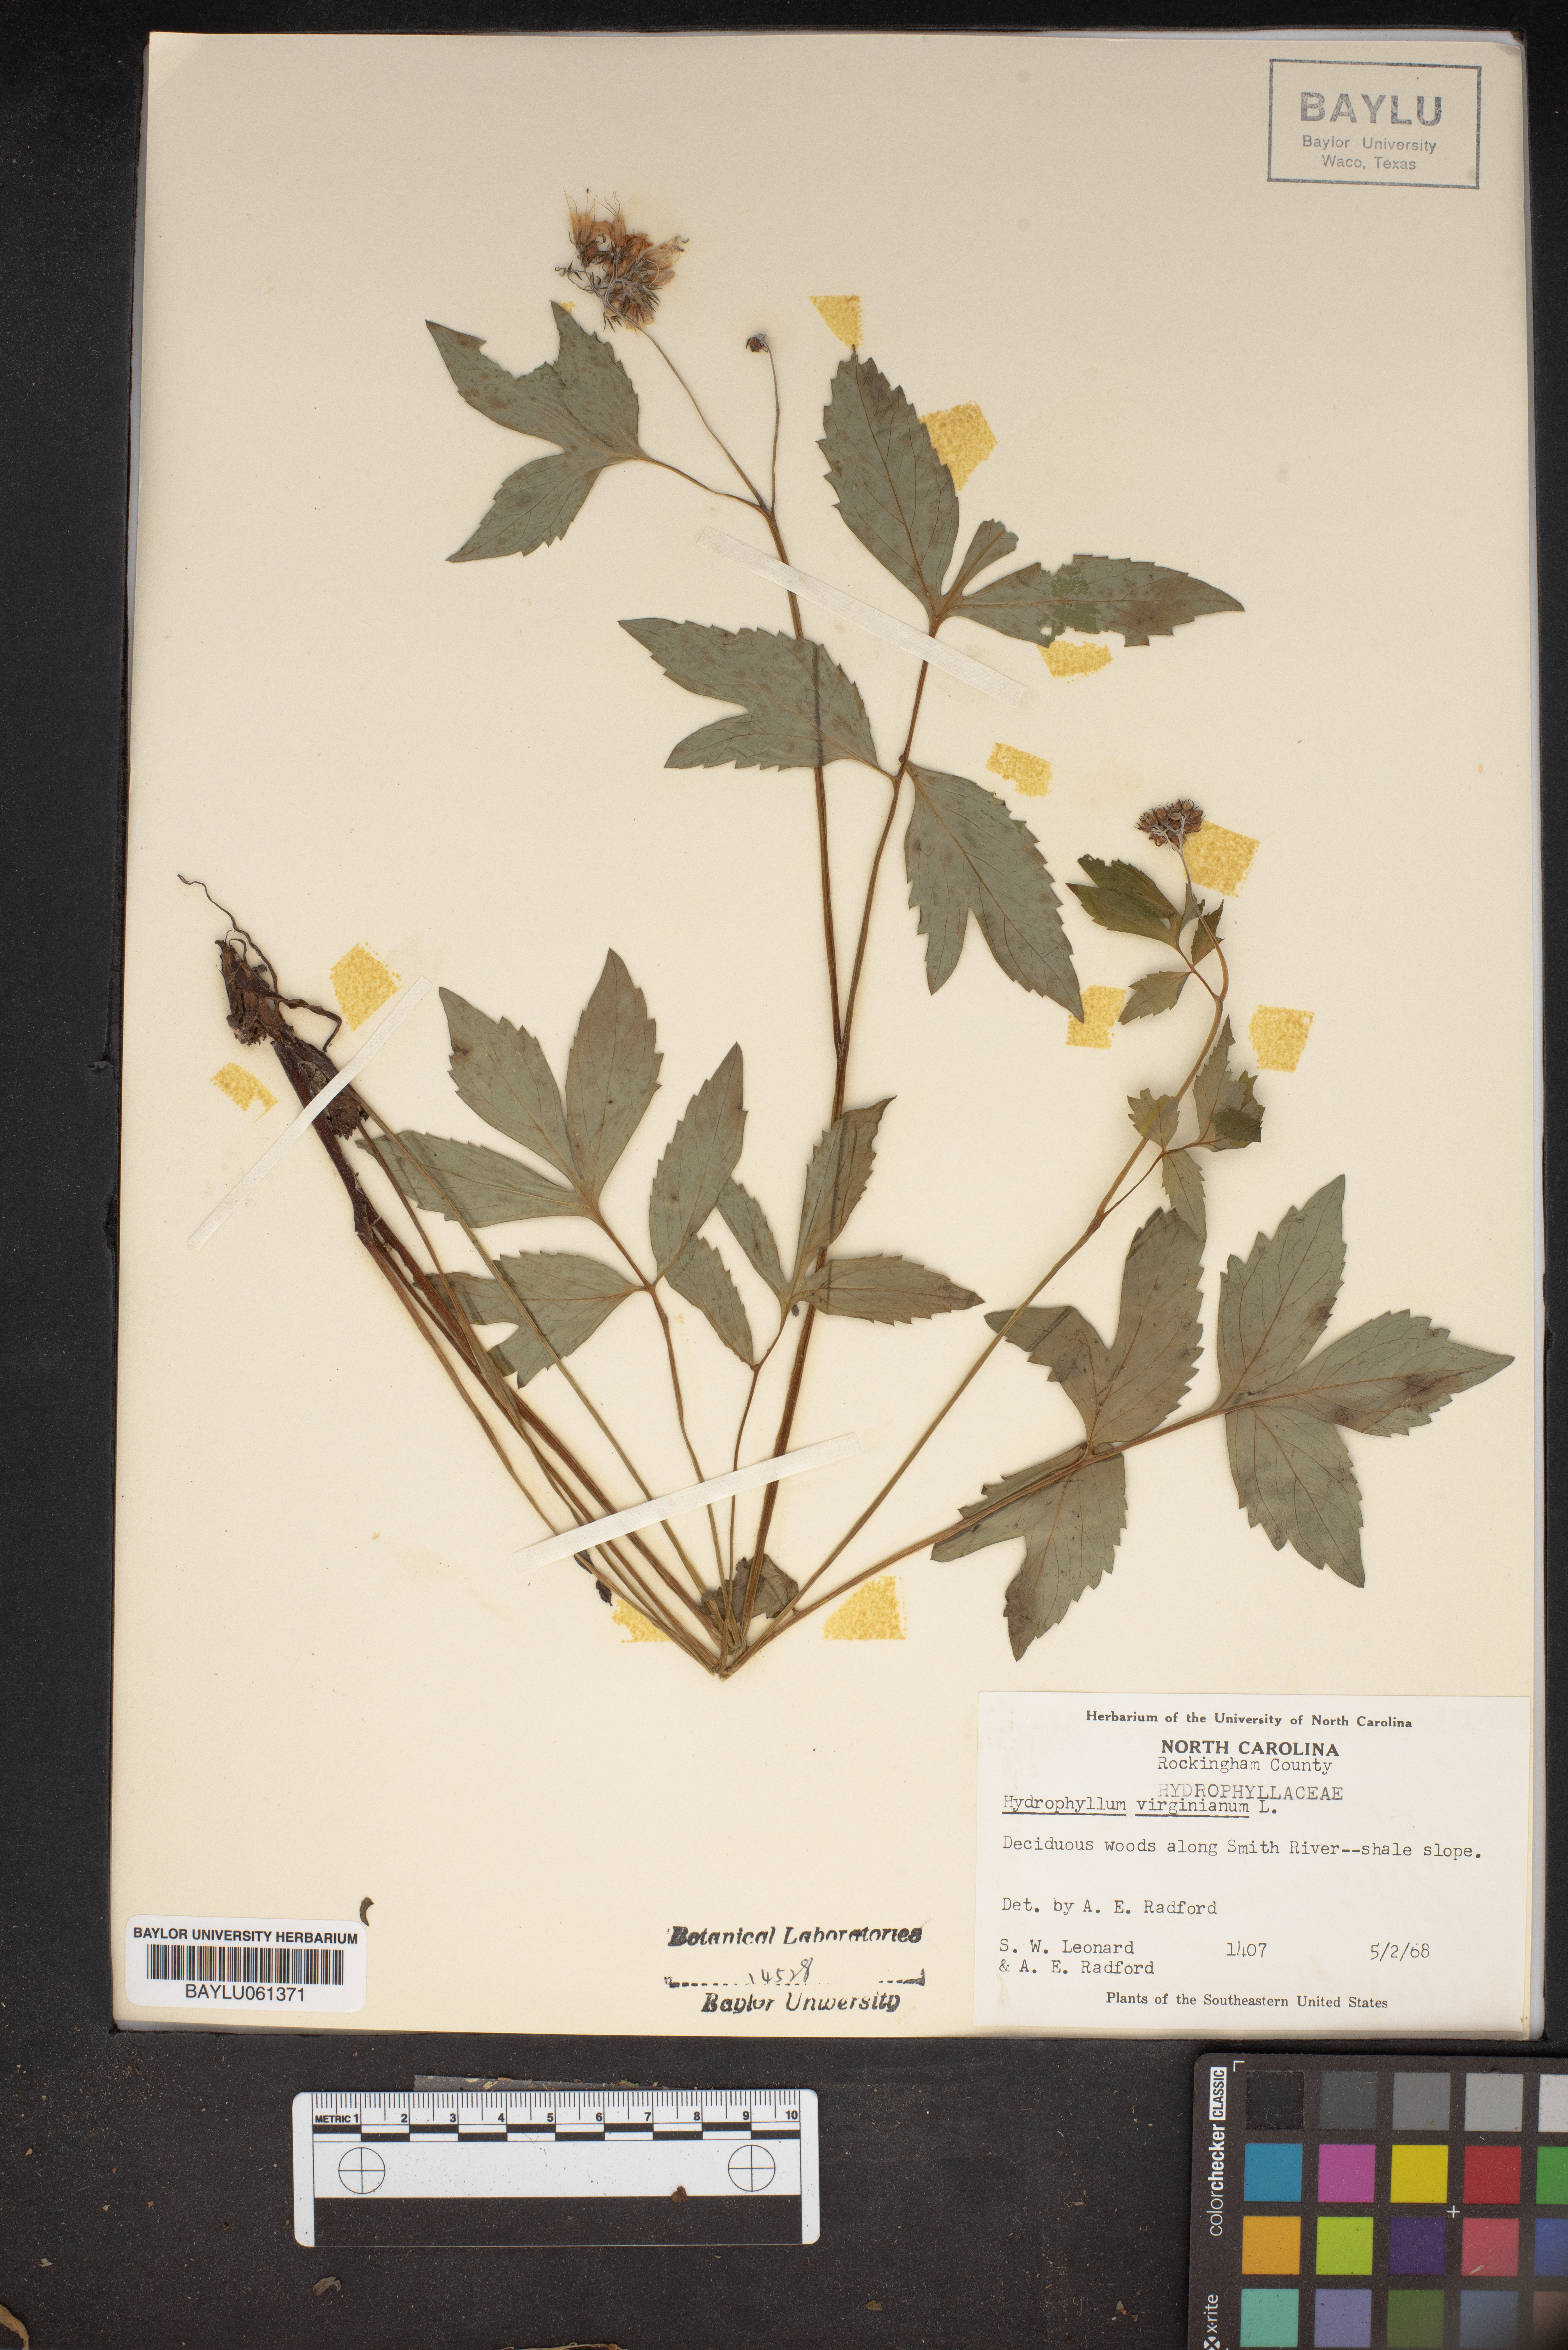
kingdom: Plantae
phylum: Tracheophyta
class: Magnoliopsida
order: Boraginales
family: Hydrophyllaceae
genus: Hydrophyllum
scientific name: Hydrophyllum virginianum
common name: Virginia waterleaf
